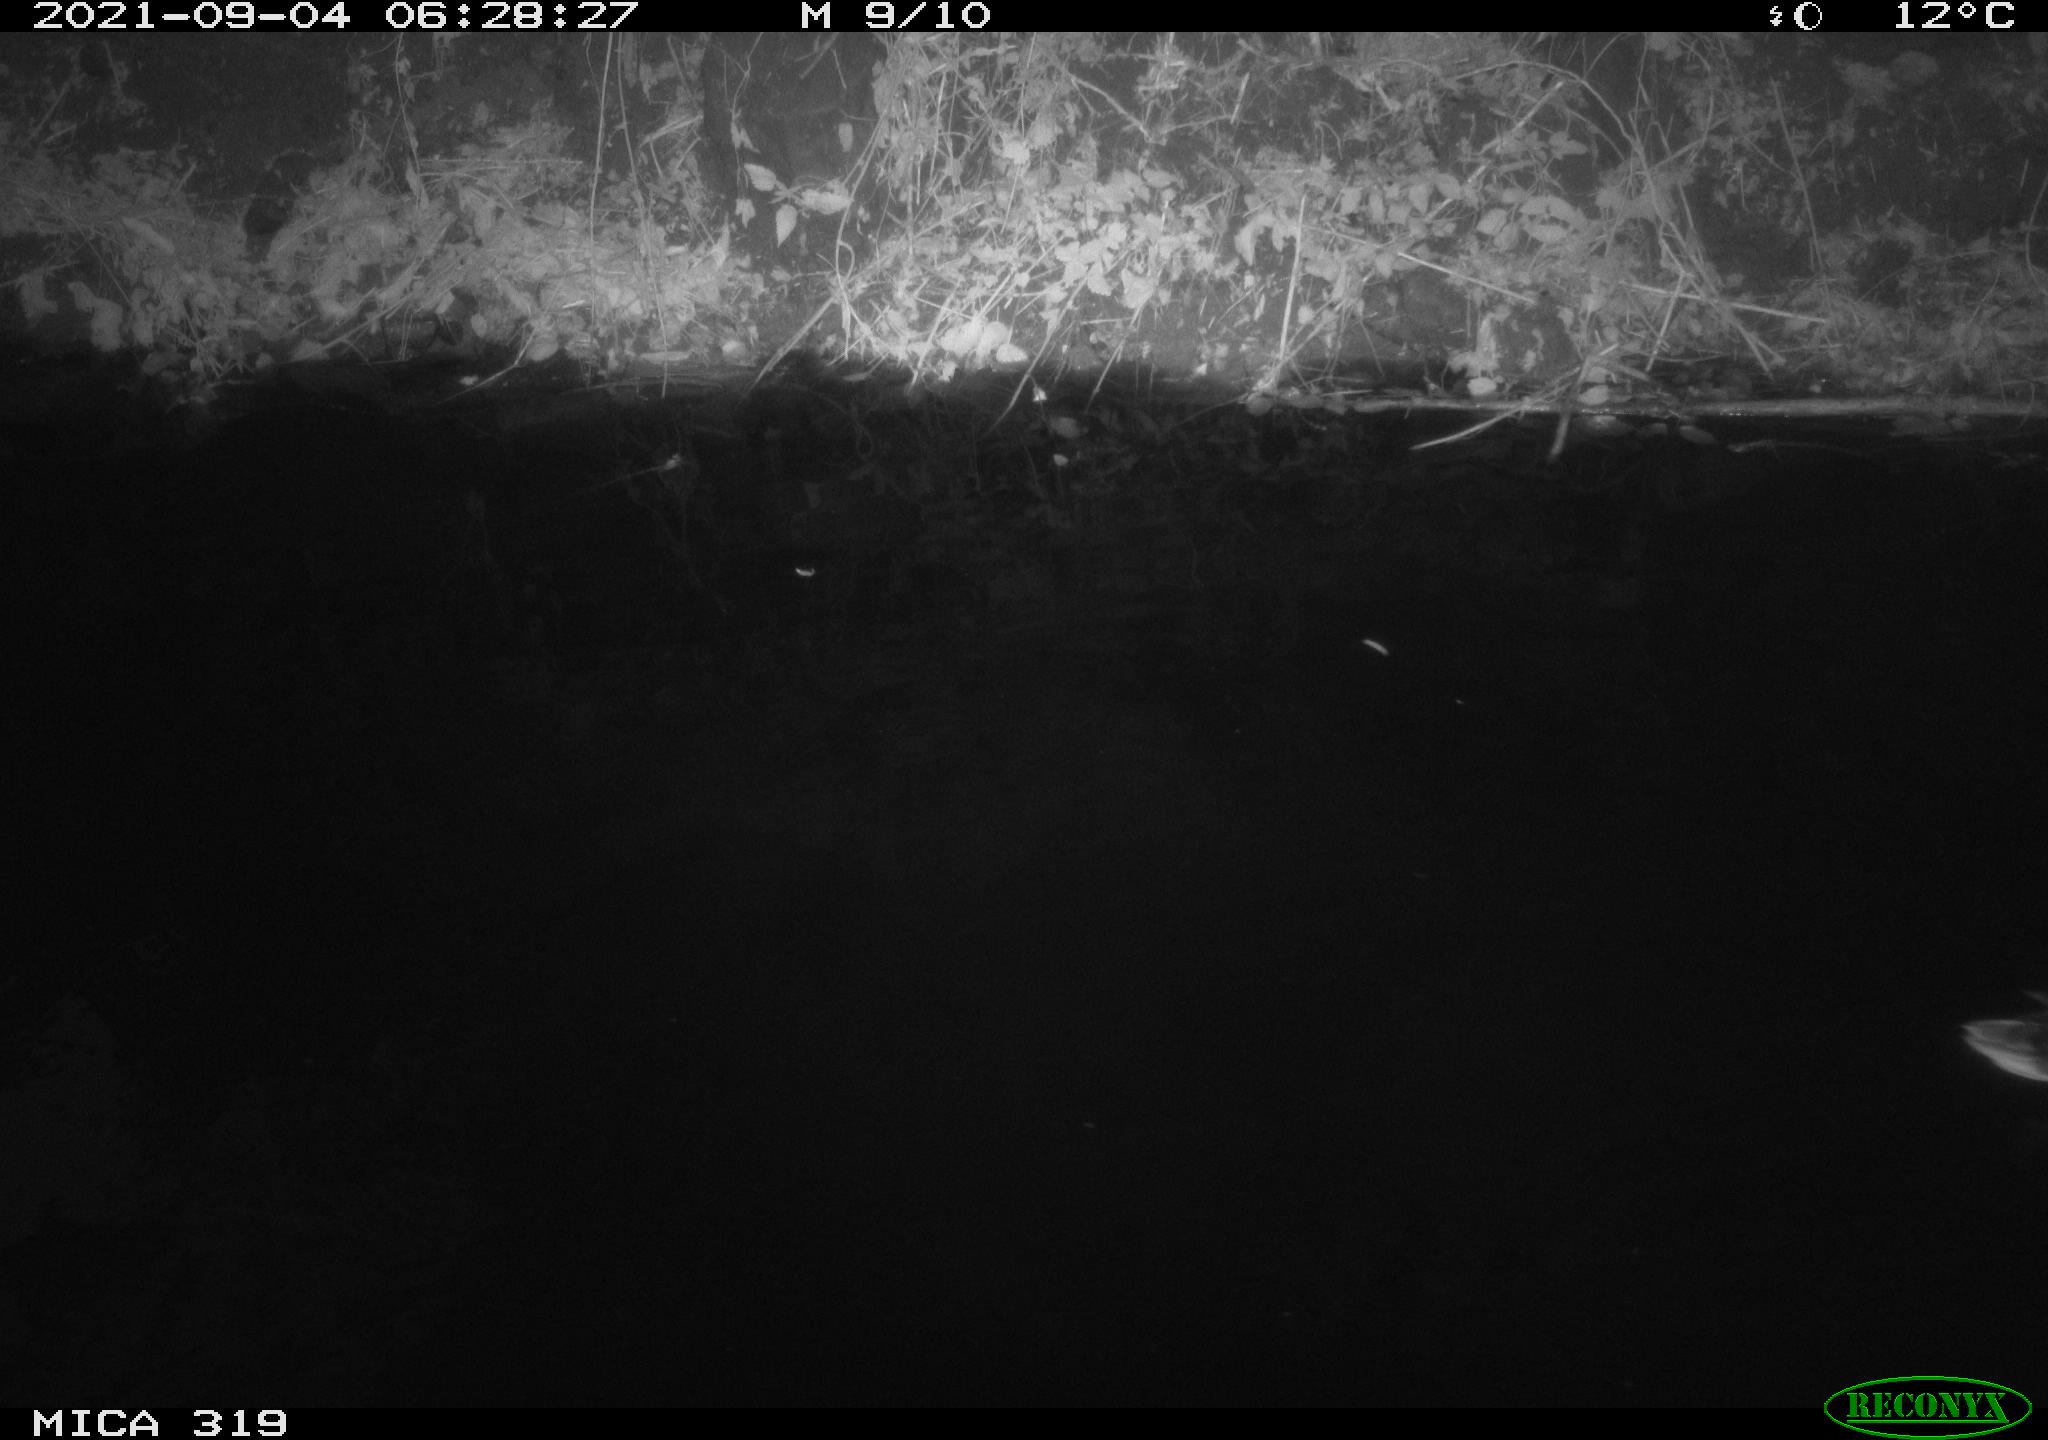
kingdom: Animalia
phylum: Chordata
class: Aves
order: Anseriformes
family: Anatidae
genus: Anas
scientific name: Anas platyrhynchos
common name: Mallard
